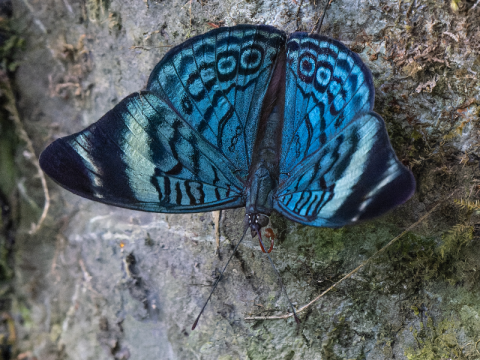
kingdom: Animalia
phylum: Arthropoda
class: Insecta
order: Lepidoptera
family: Nymphalidae
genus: Panacea
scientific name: Panacea procilla
